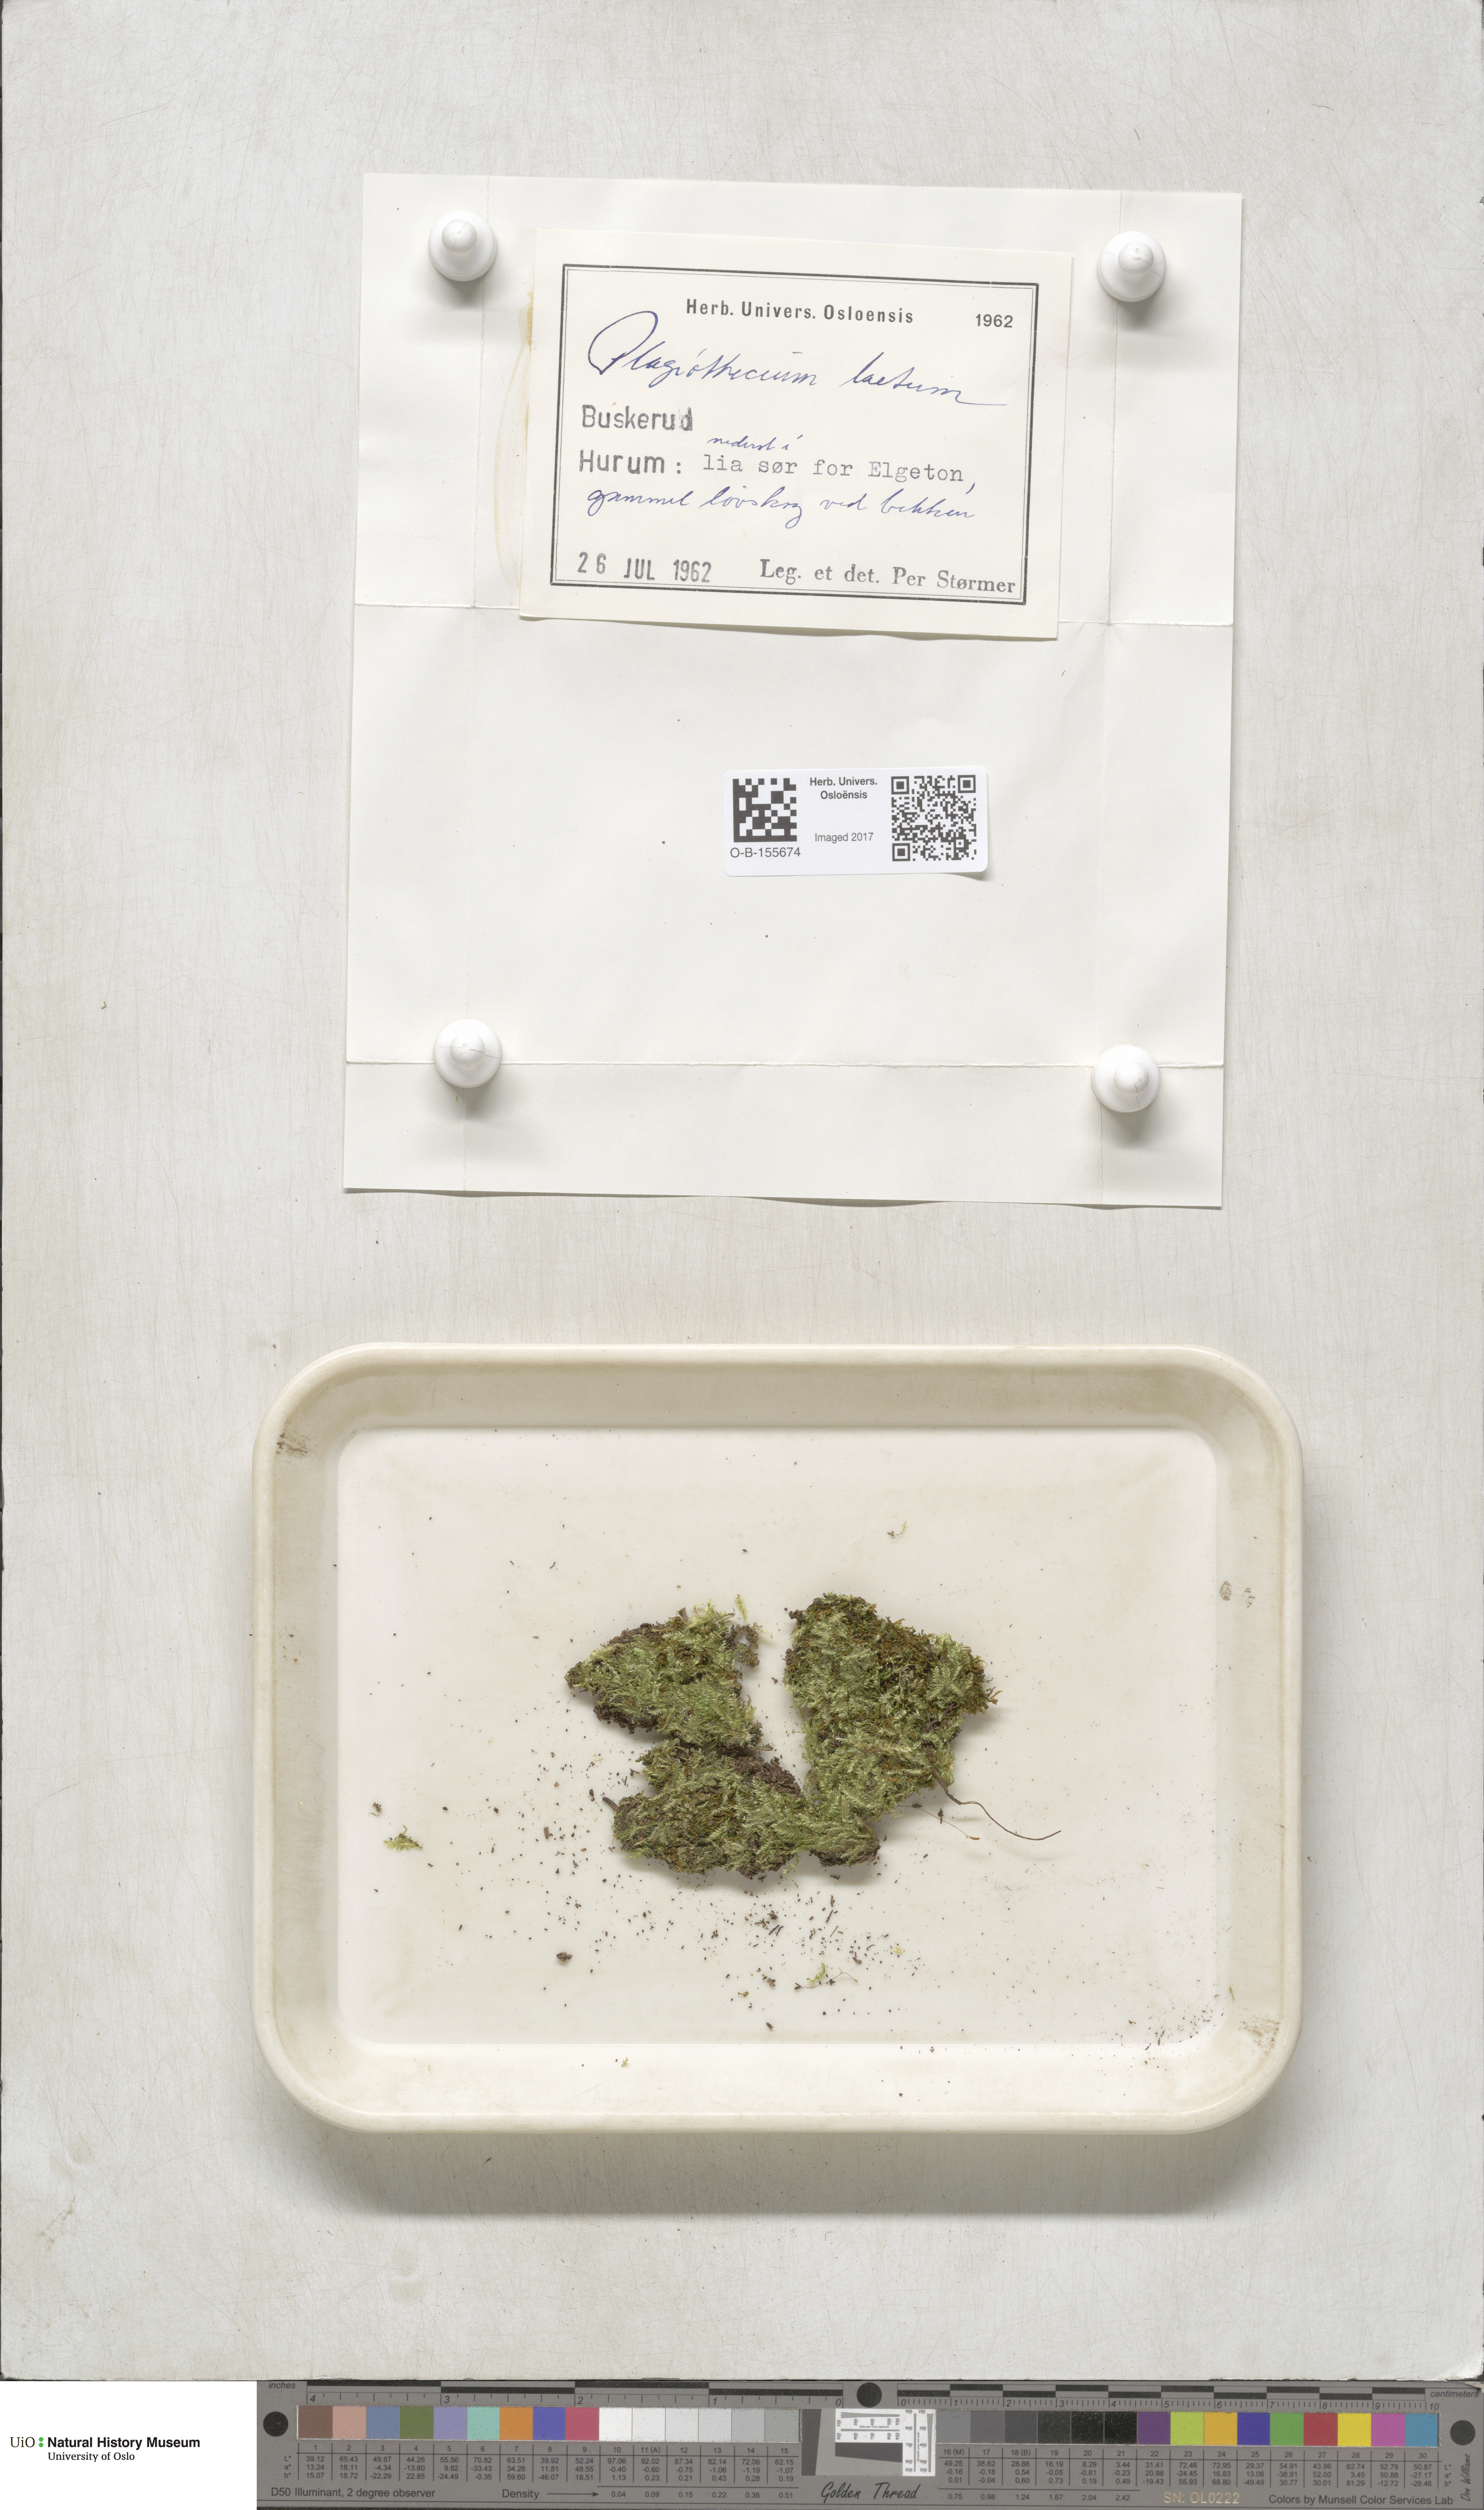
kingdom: Plantae
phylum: Bryophyta
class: Bryopsida
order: Hypnales
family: Plagiotheciaceae
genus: Plagiothecium
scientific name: Plagiothecium laetum
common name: Bright silk moss
